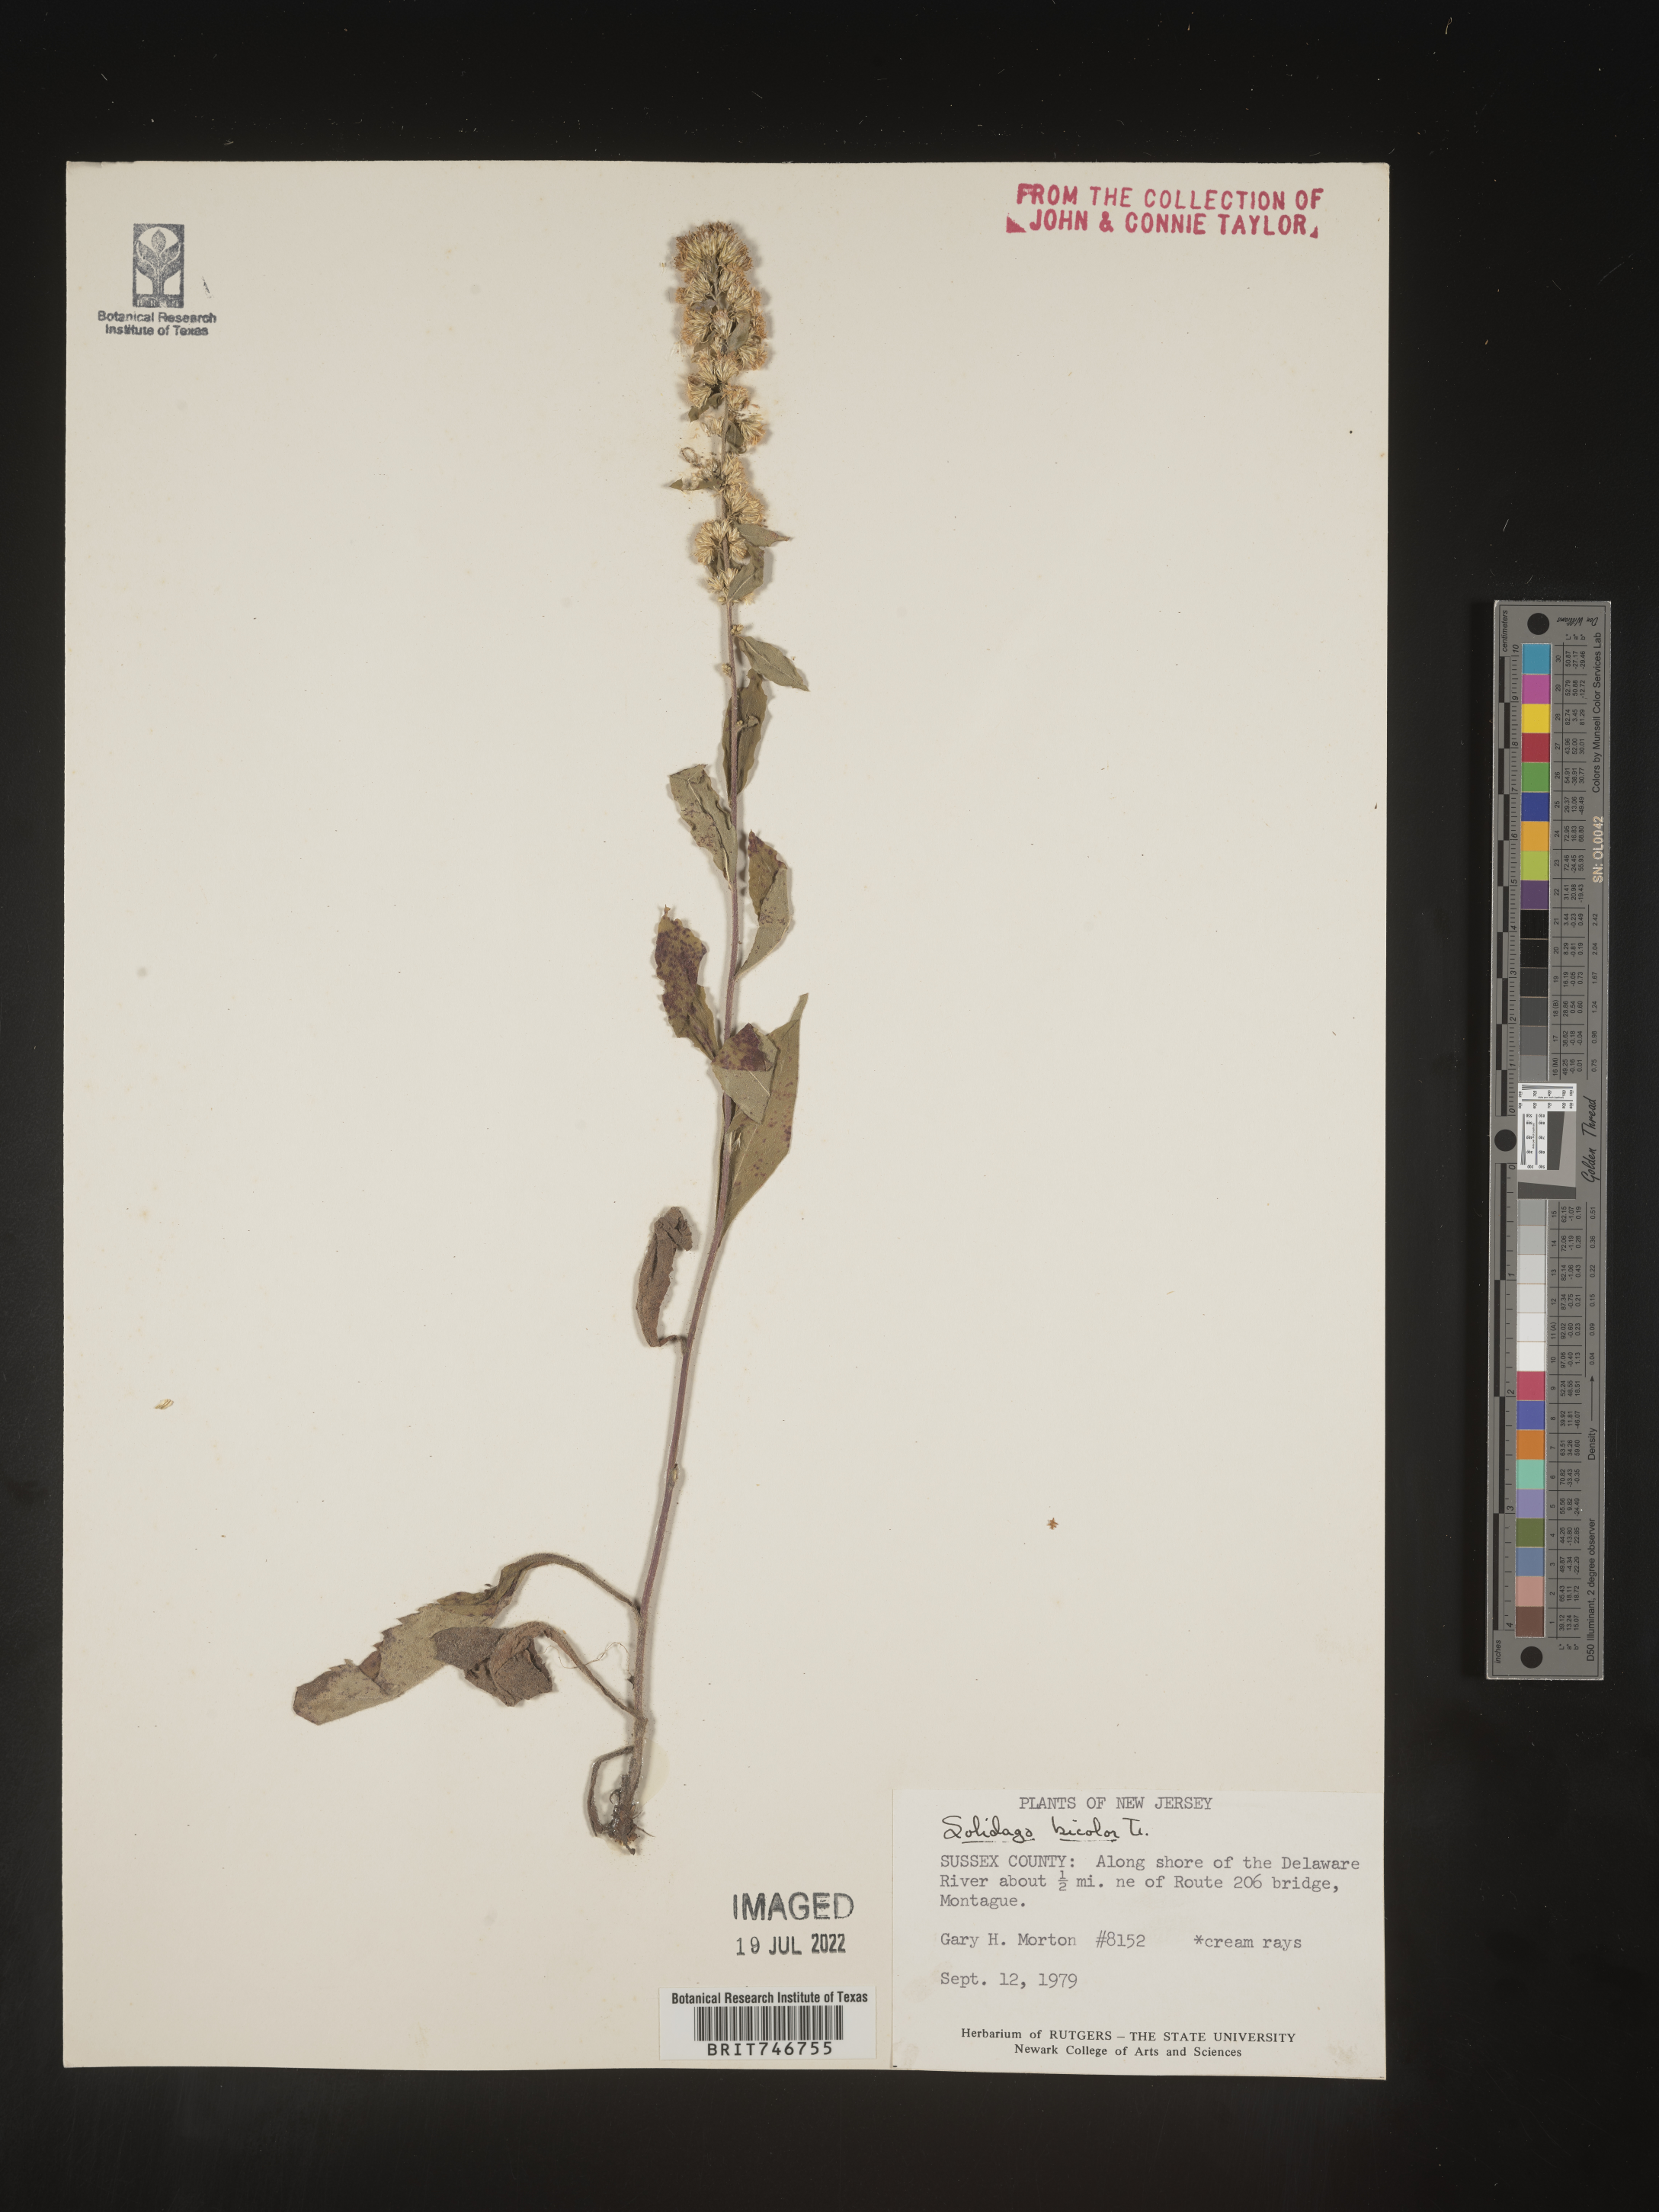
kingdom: Plantae
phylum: Tracheophyta
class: Magnoliopsida
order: Asterales
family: Asteraceae
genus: Solidago
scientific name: Solidago hispida
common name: Hairy goldenrod
